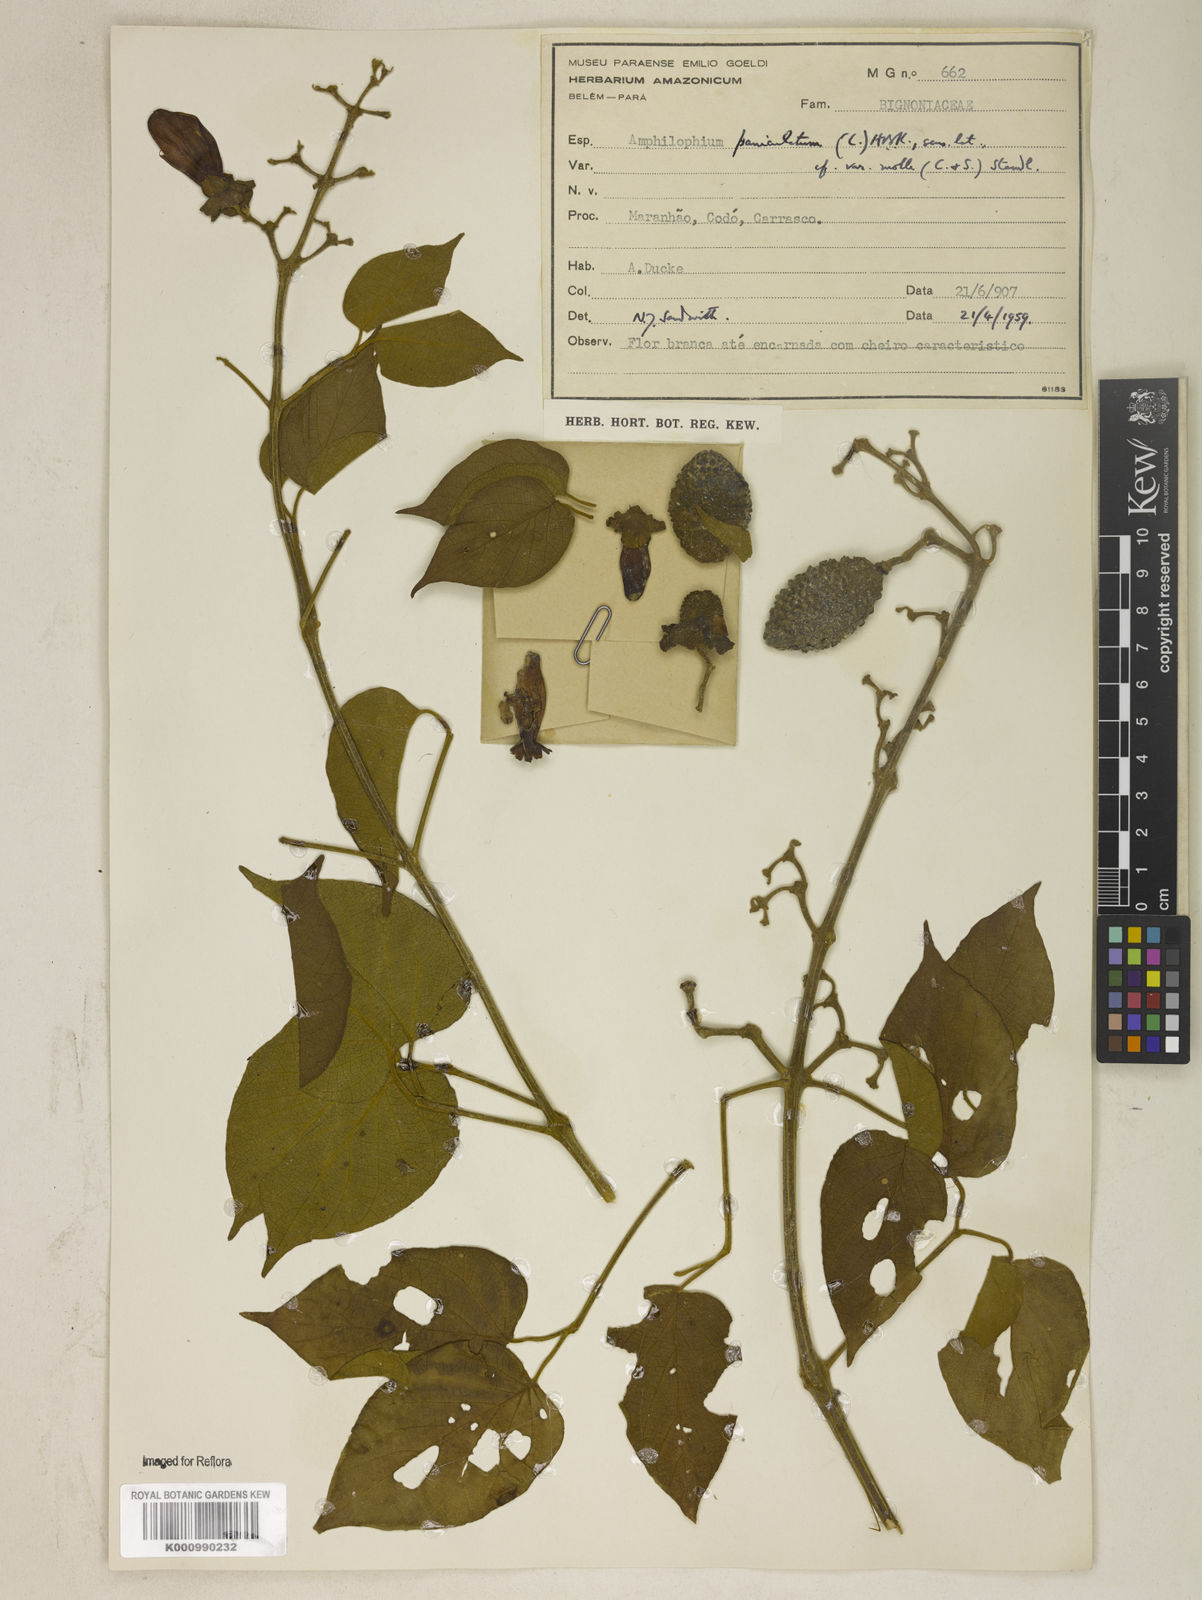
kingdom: Plantae
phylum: Tracheophyta
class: Magnoliopsida
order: Lamiales
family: Bignoniaceae
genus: Amphilophium
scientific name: Amphilophium paniculatum
